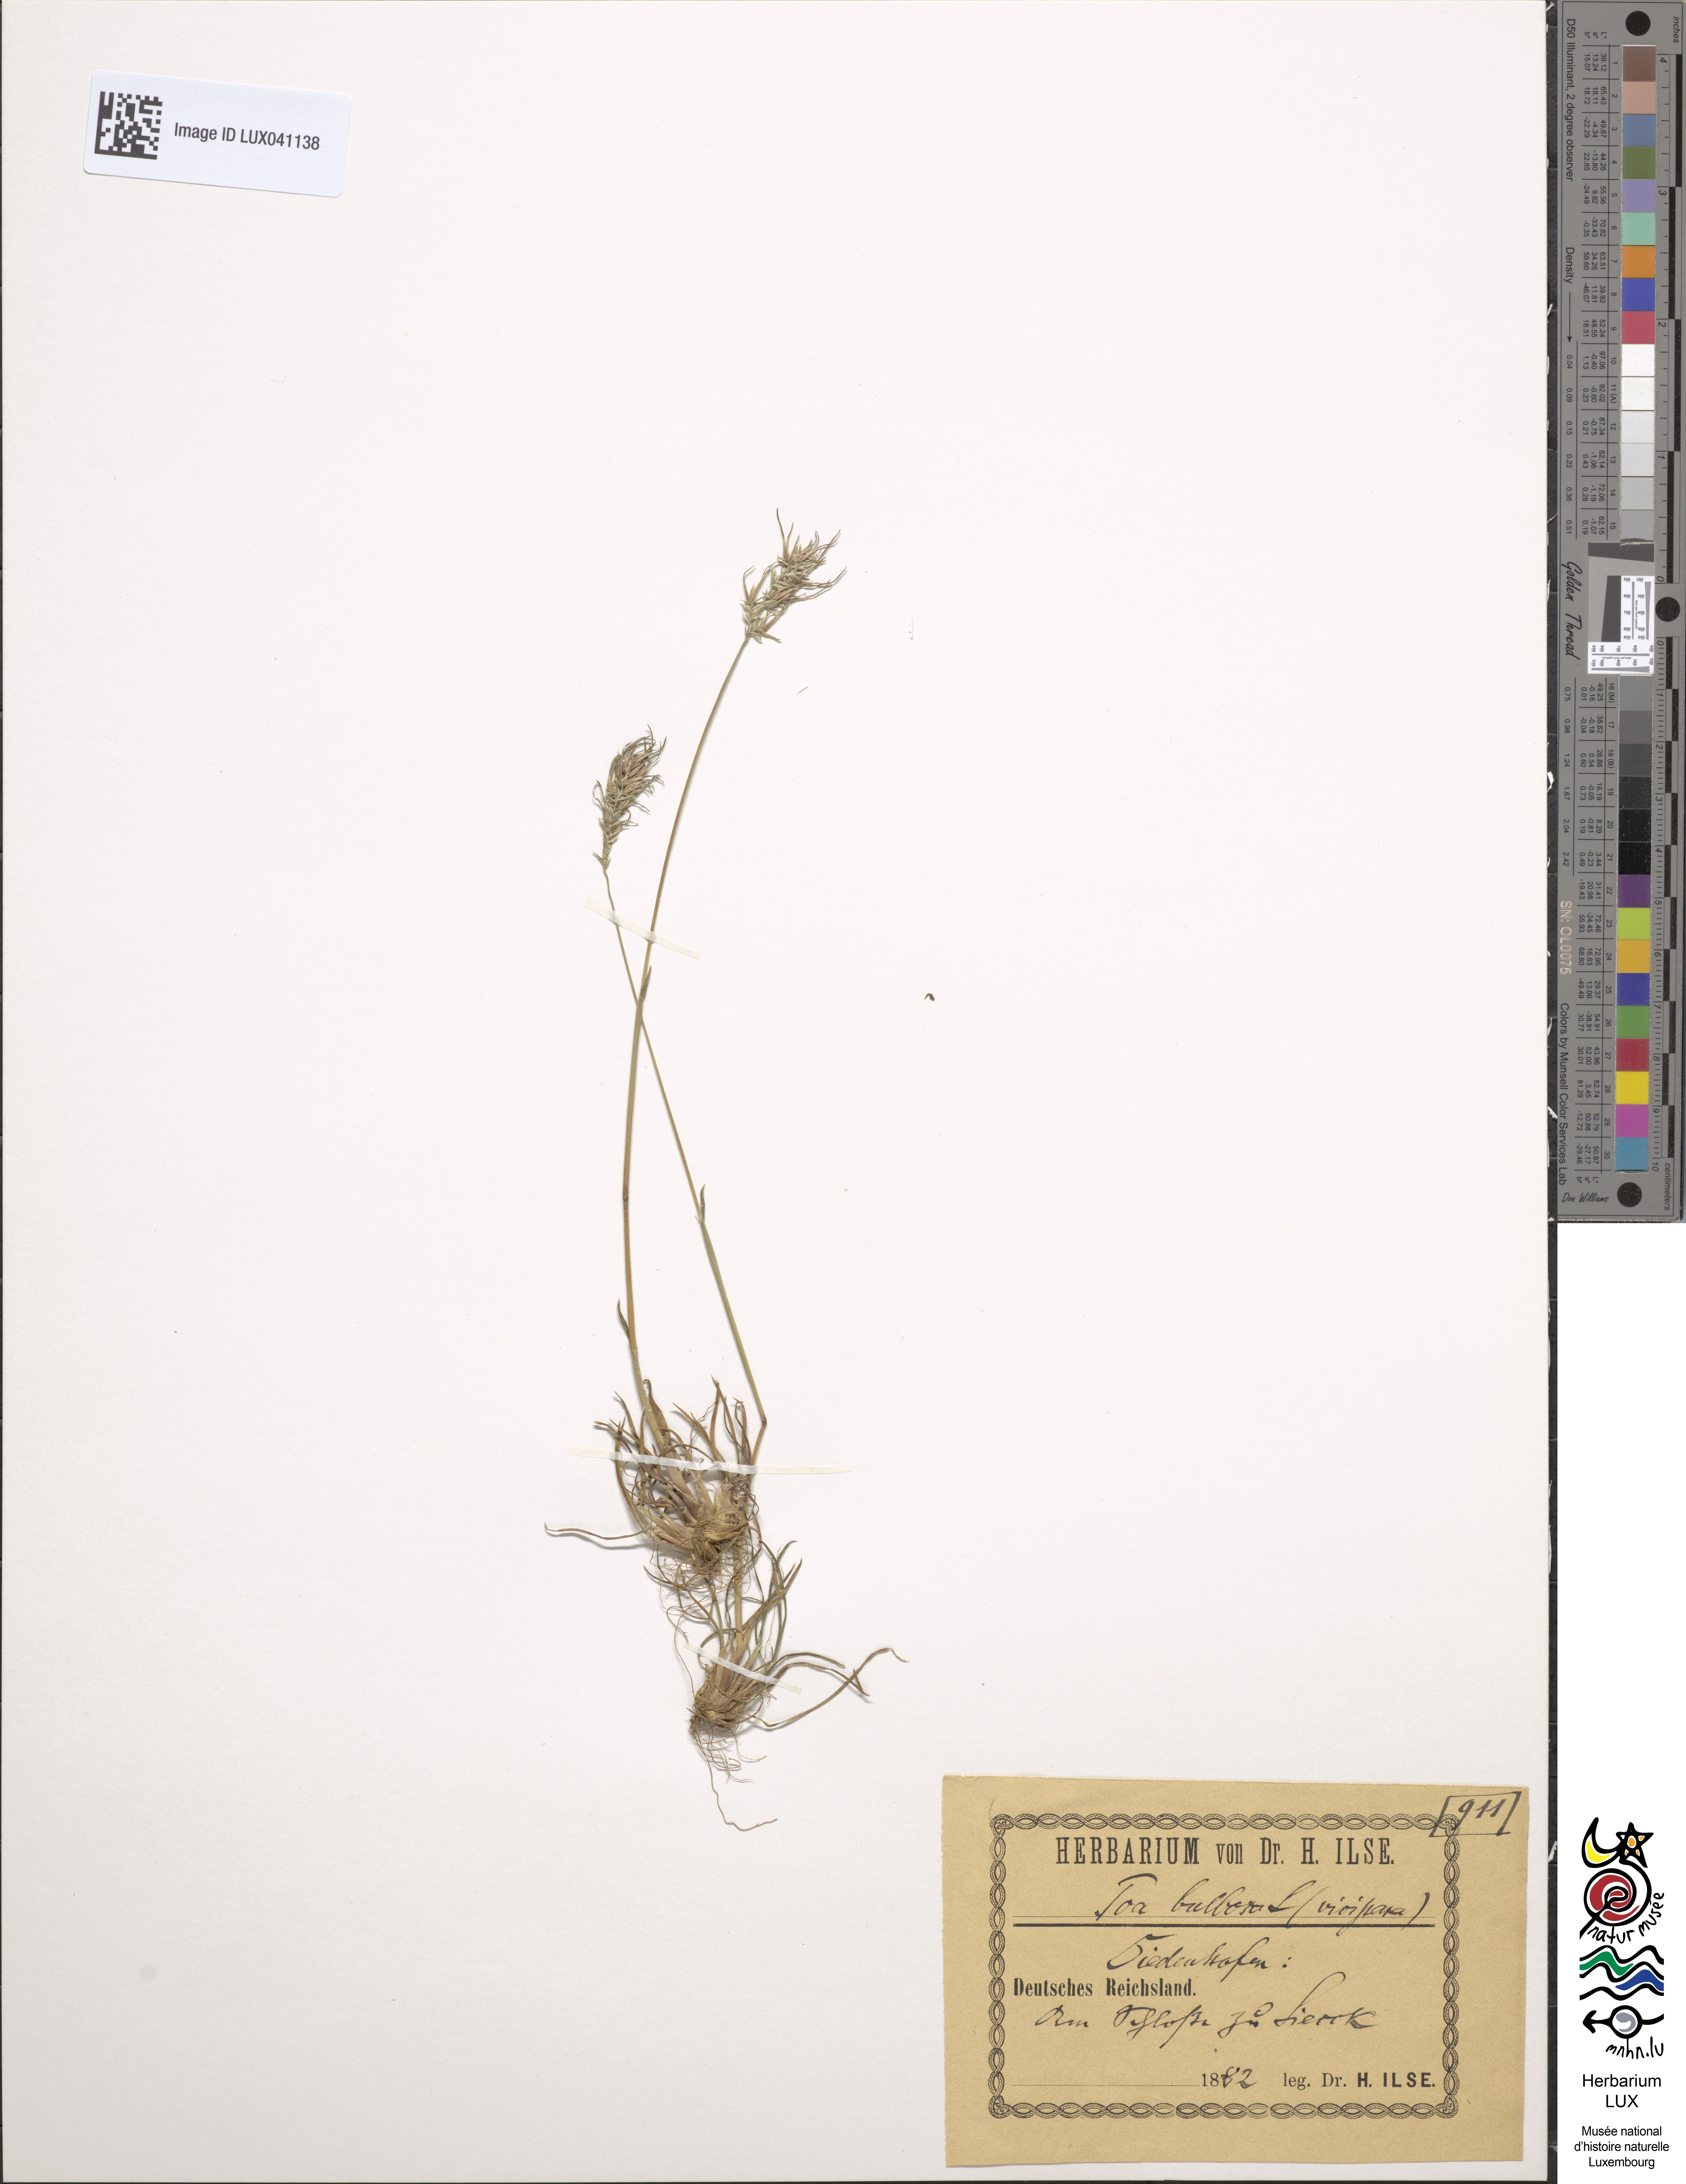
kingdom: Plantae
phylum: Tracheophyta
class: Liliopsida
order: Poales
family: Poaceae
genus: Poa
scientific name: Poa bulbosa
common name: Bulbous bluegrass
